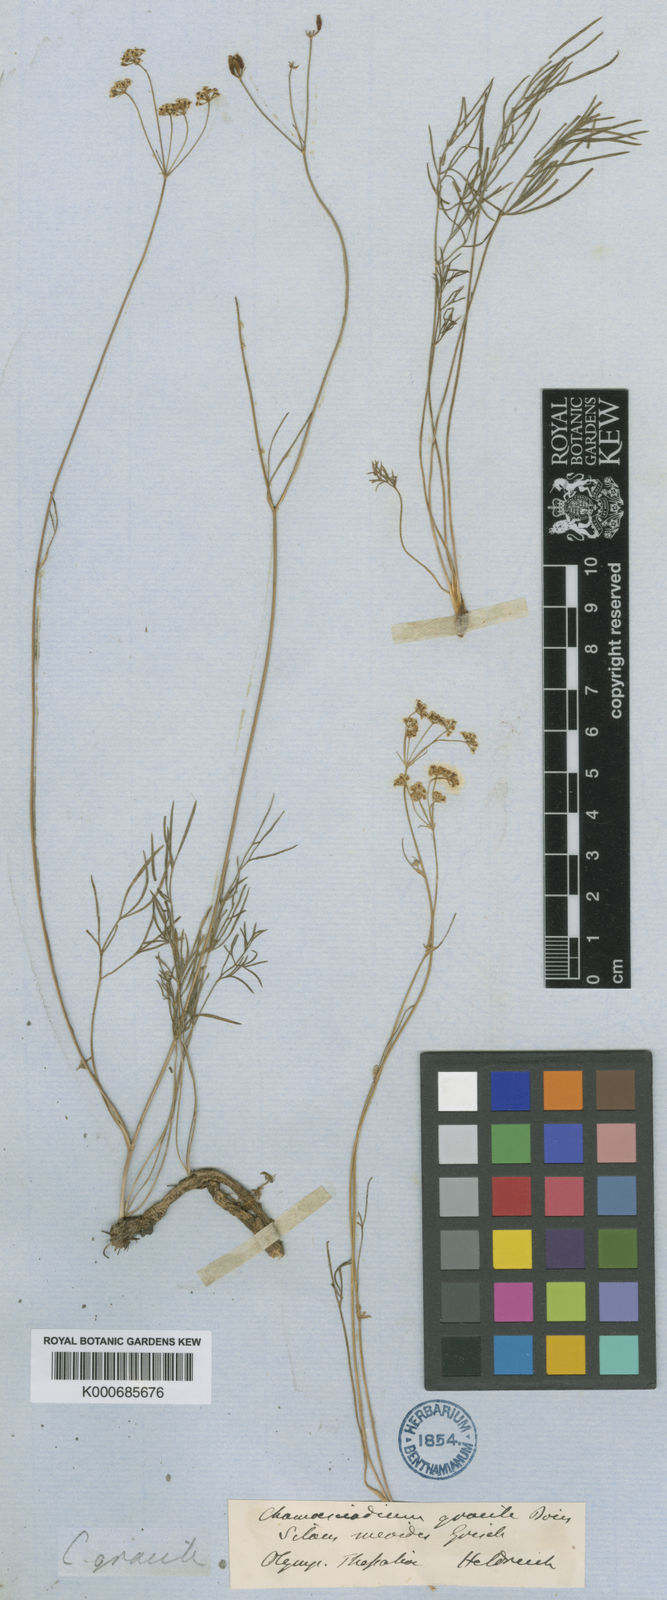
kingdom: Plantae
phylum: Tracheophyta
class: Magnoliopsida
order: Apiales
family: Apiaceae
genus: Carum
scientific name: Carum heldreichii
